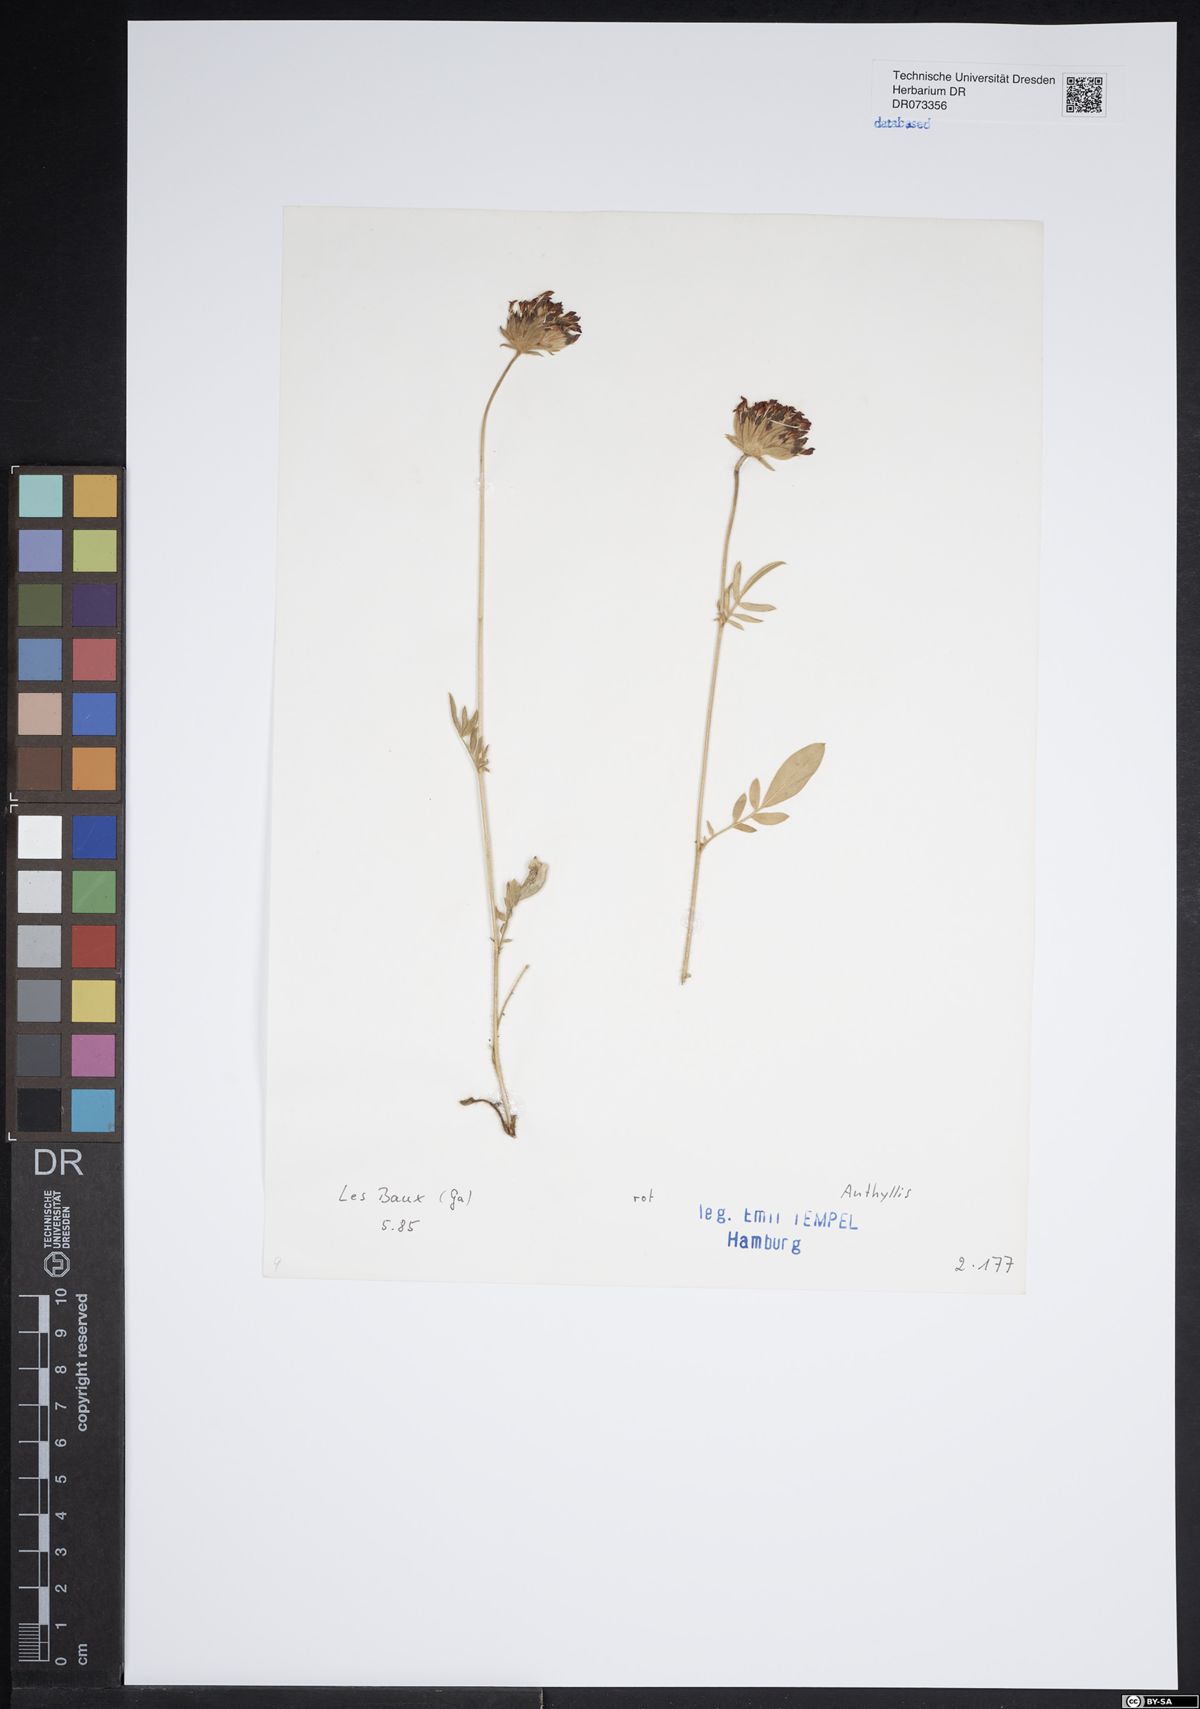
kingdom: Plantae
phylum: Tracheophyta
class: Magnoliopsida
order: Fabales
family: Fabaceae
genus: Anthyllis
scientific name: Anthyllis
